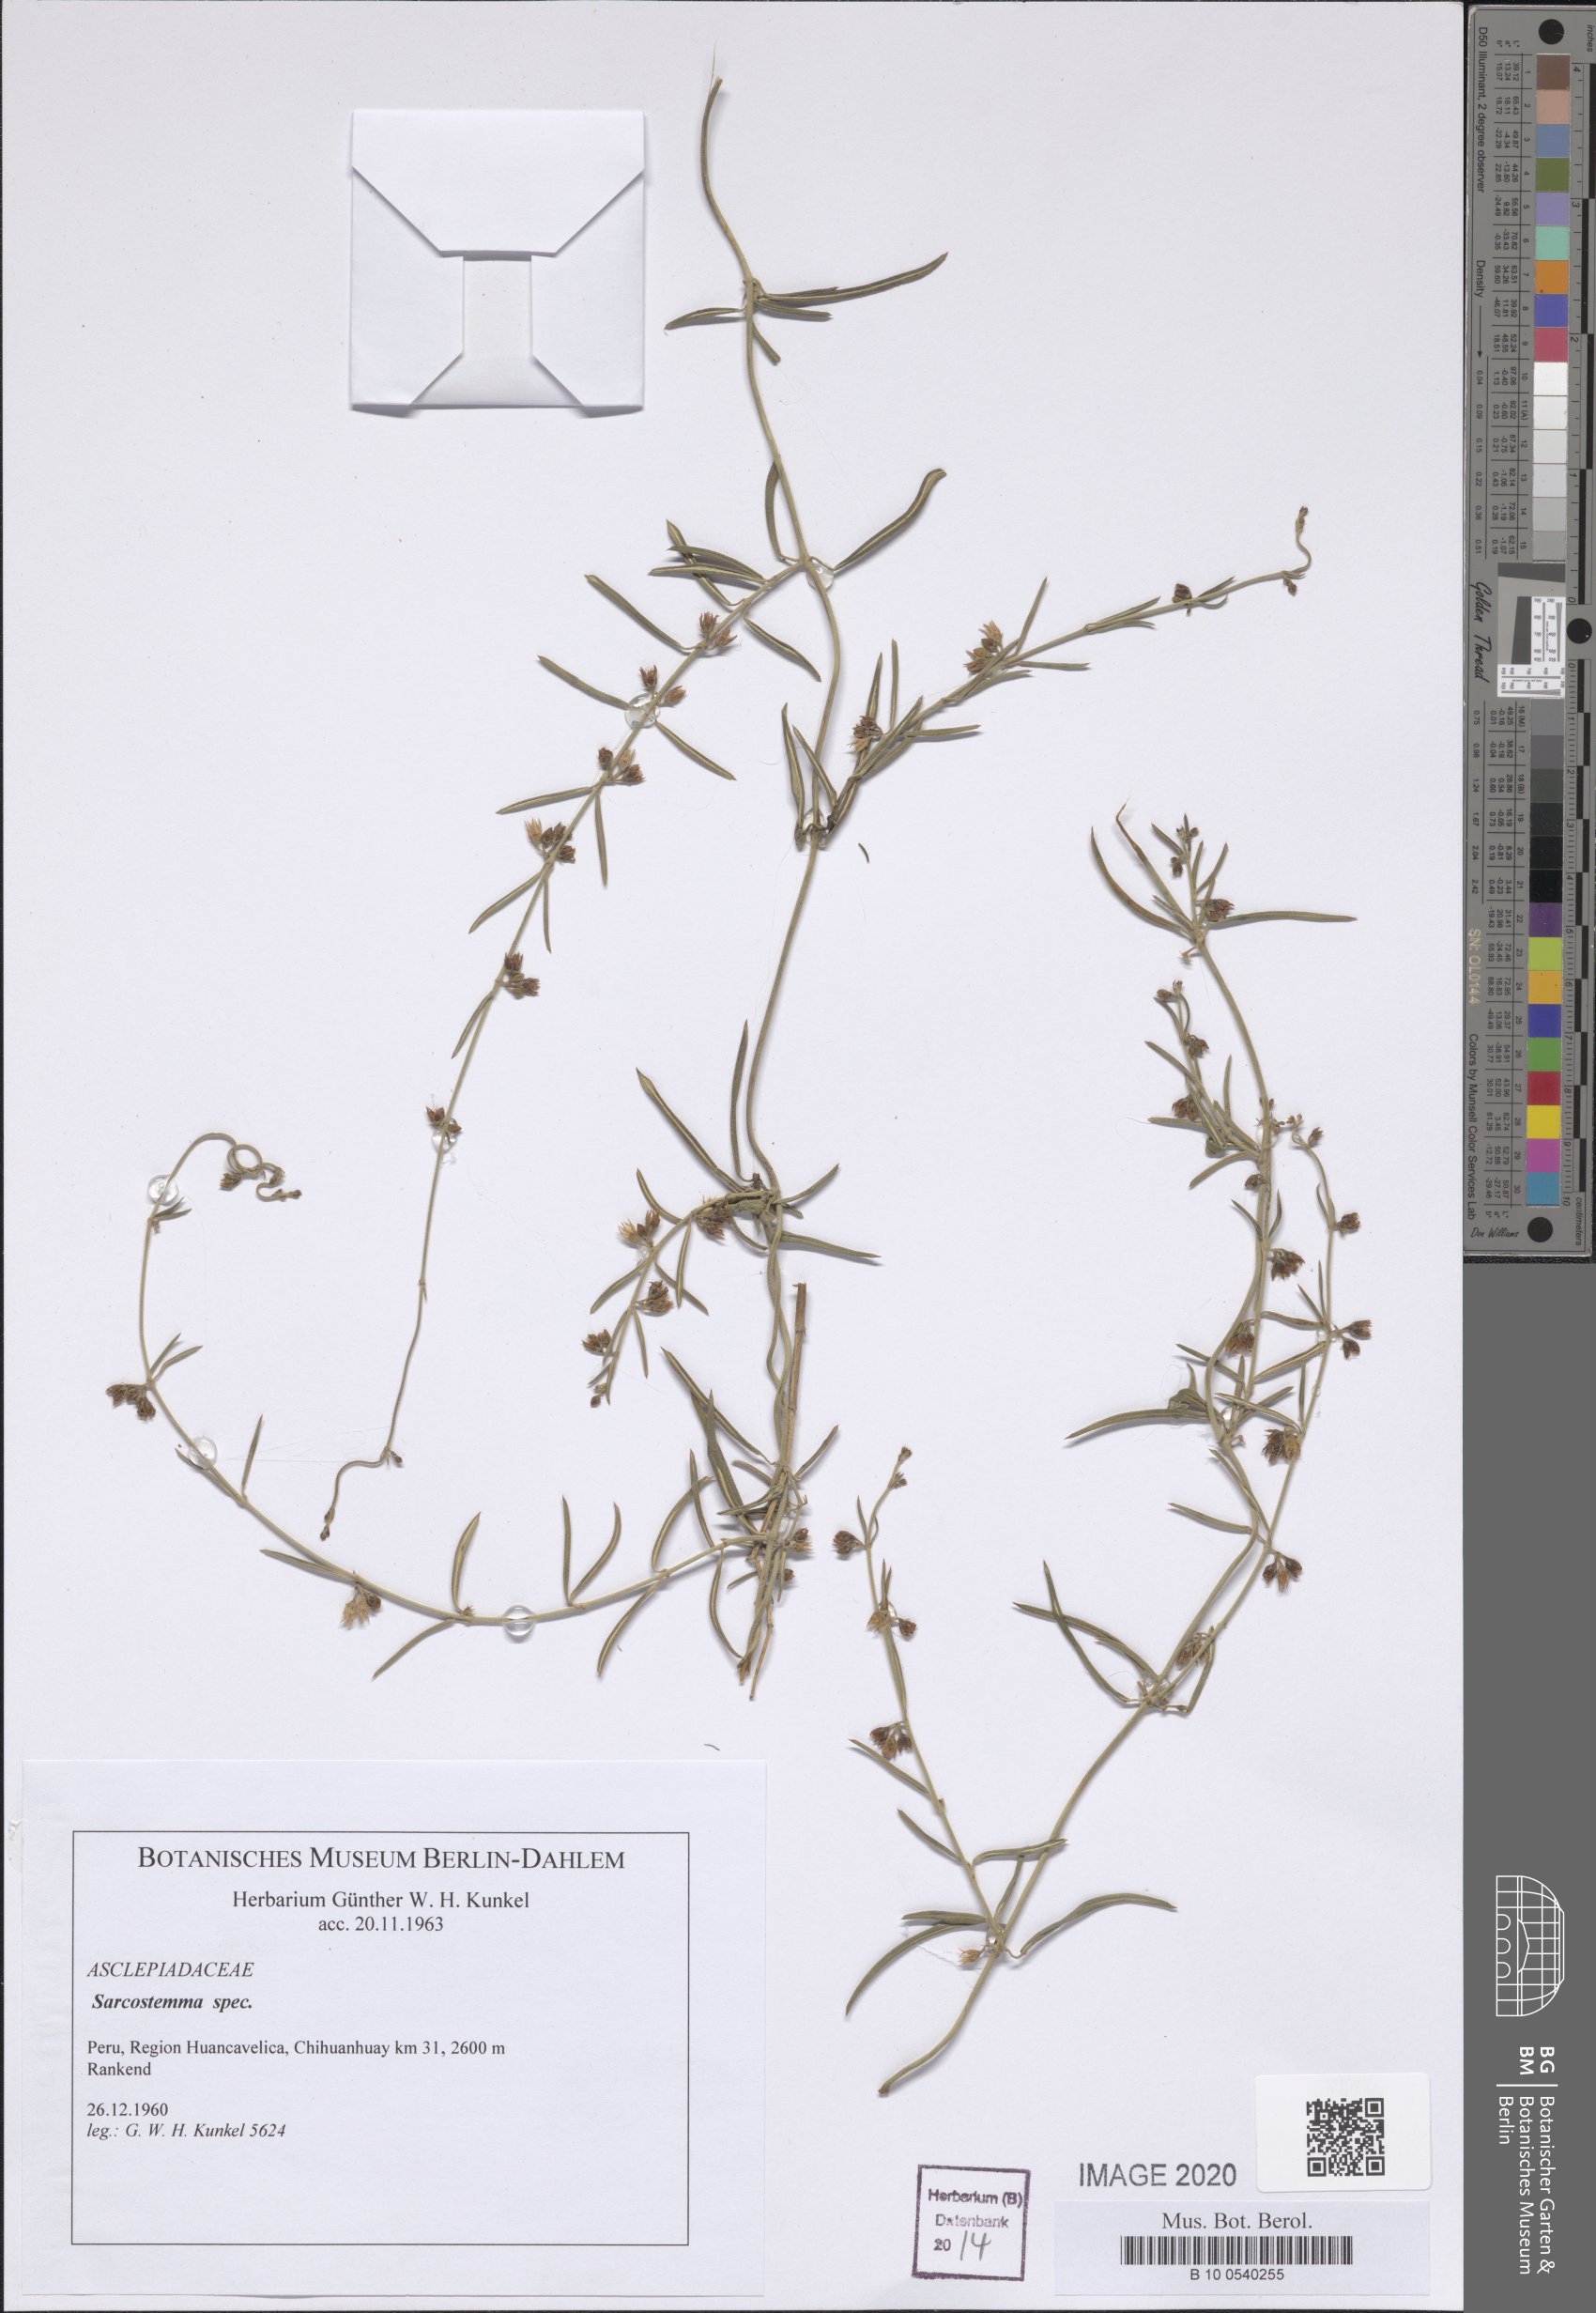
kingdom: Plantae
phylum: Tracheophyta
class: Magnoliopsida
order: Gentianales
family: Apocynaceae
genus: Cynanchum
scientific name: Cynanchum
